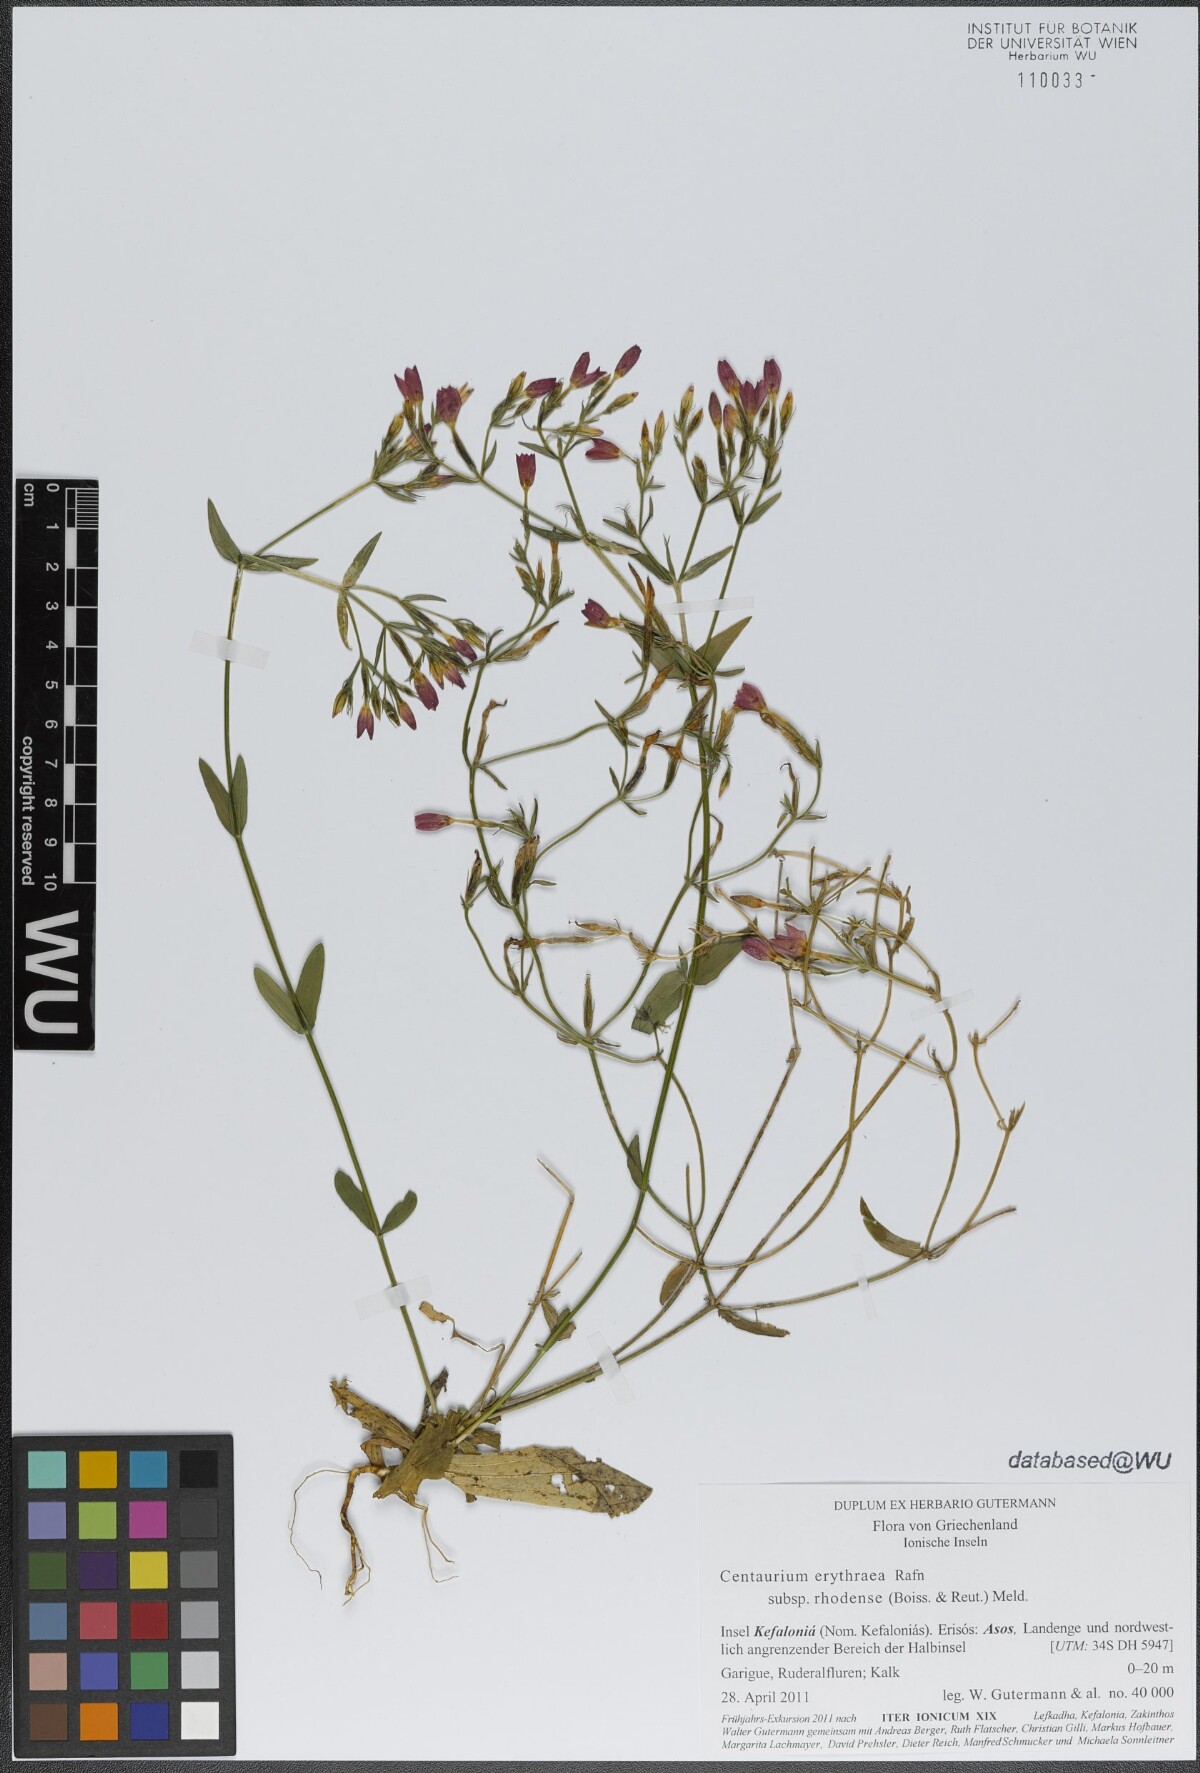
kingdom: Plantae
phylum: Tracheophyta
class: Magnoliopsida
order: Gentianales
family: Gentianaceae
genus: Centaurium
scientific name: Centaurium erythraea
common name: Common centaury
